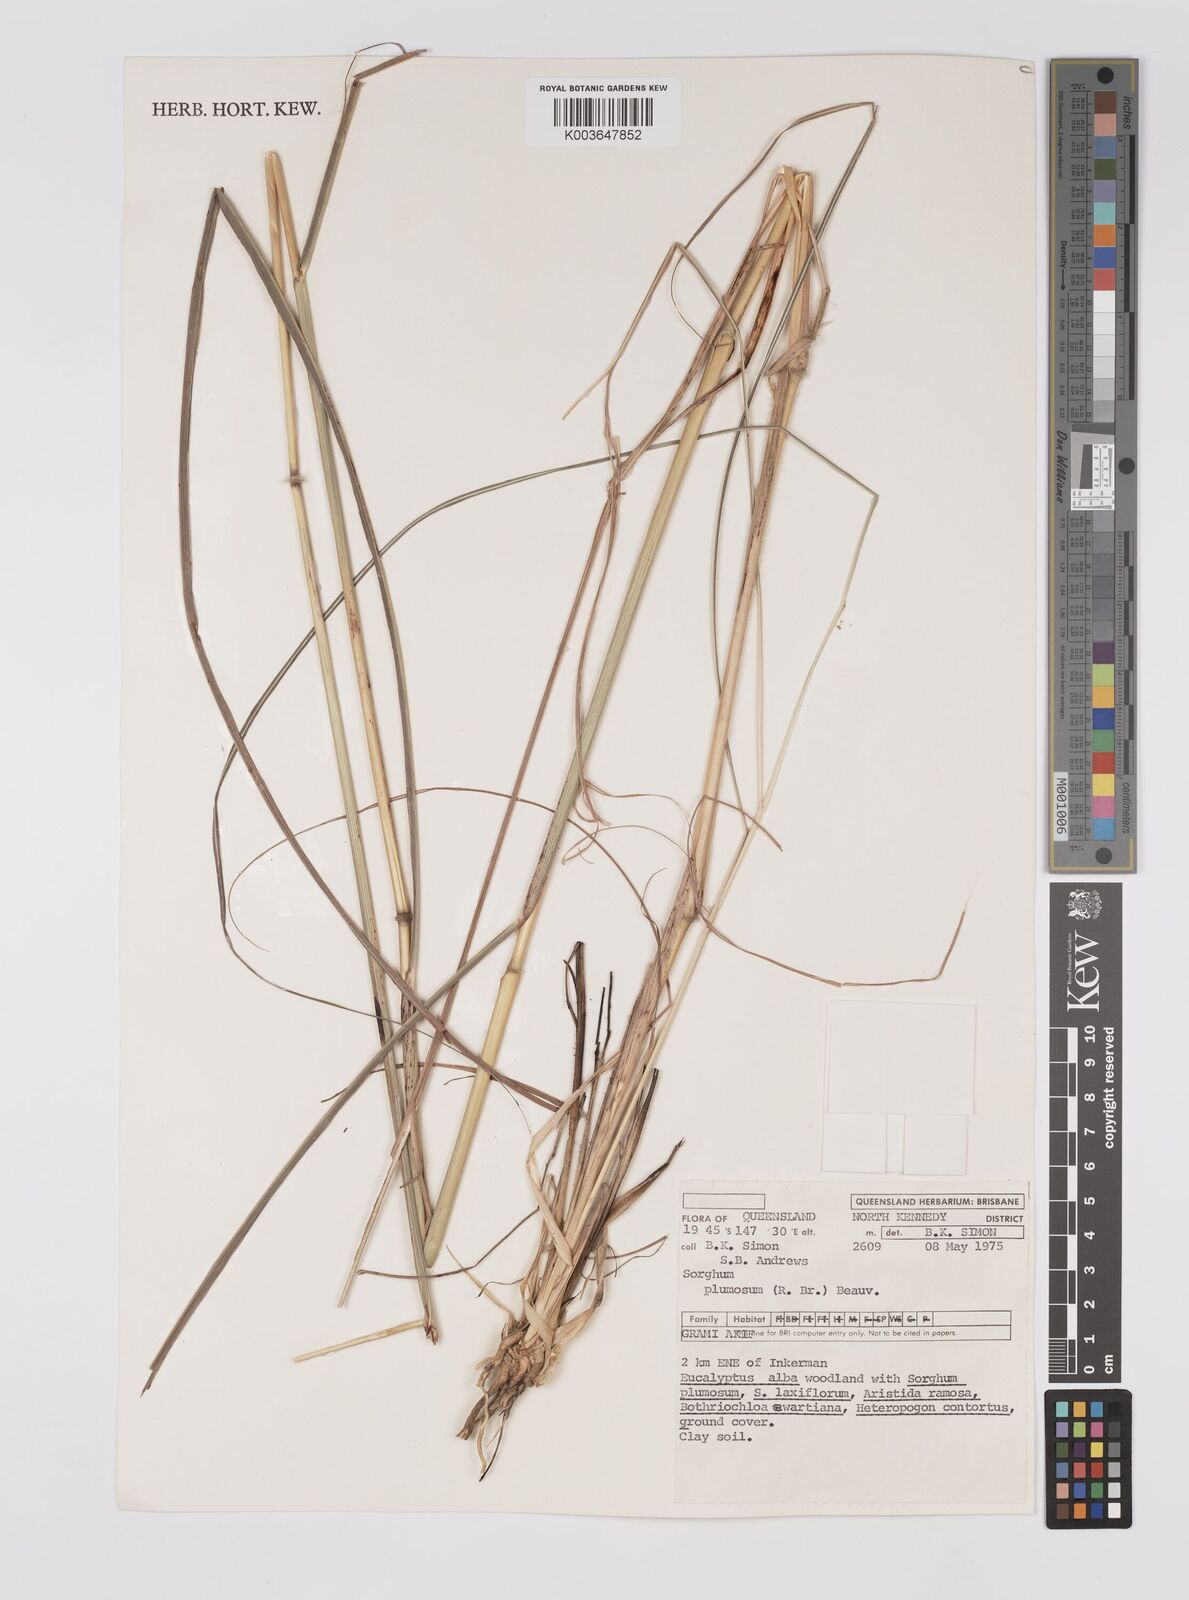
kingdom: Plantae
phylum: Tracheophyta
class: Liliopsida
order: Poales
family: Poaceae
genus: Sarga
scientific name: Sarga plumosa
